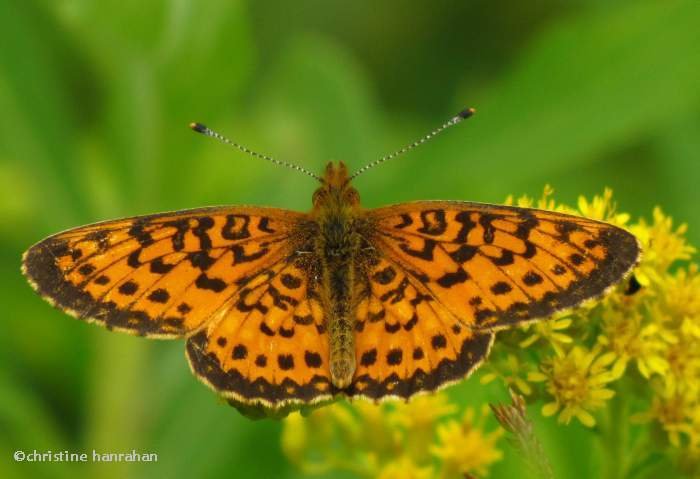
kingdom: Animalia
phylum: Arthropoda
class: Insecta
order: Lepidoptera
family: Nymphalidae
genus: Boloria
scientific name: Boloria selene
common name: Silver-bordered Fritillary
